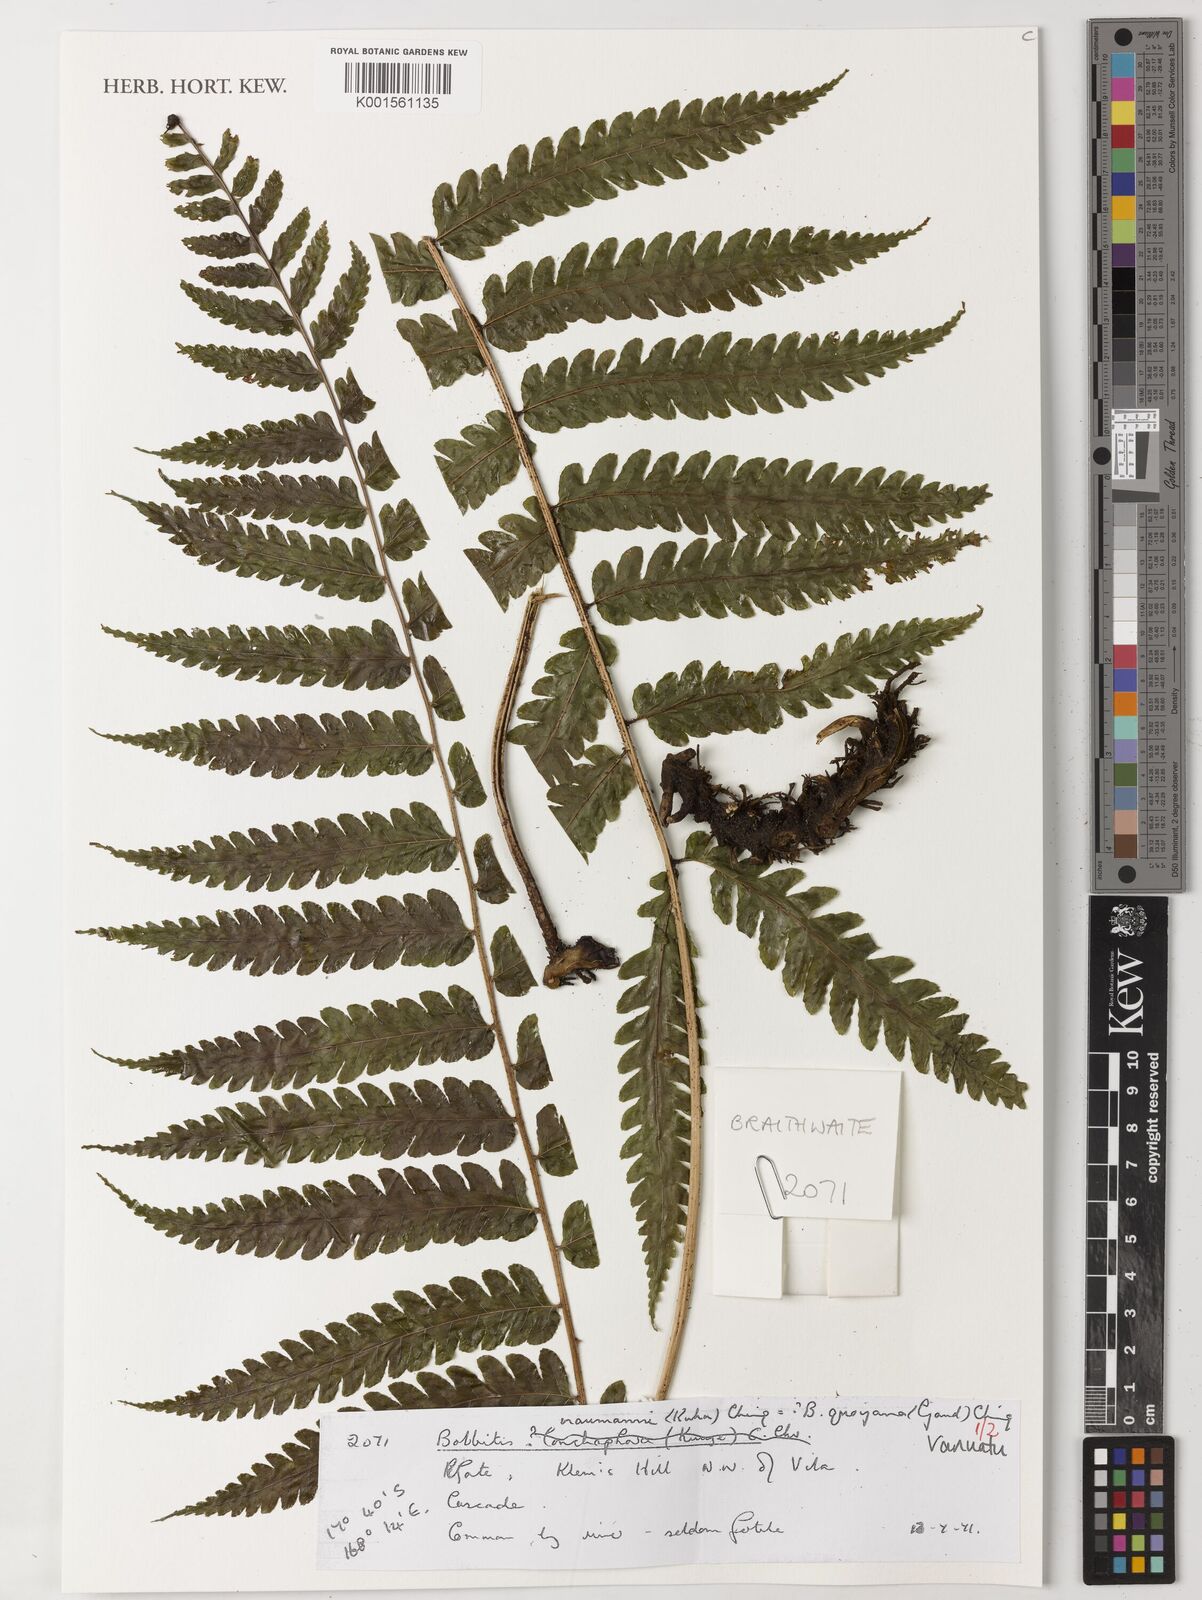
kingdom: Plantae
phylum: Tracheophyta
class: Polypodiopsida
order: Polypodiales
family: Dryopteridaceae
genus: Bolbitis
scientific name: Bolbitis quoyana
